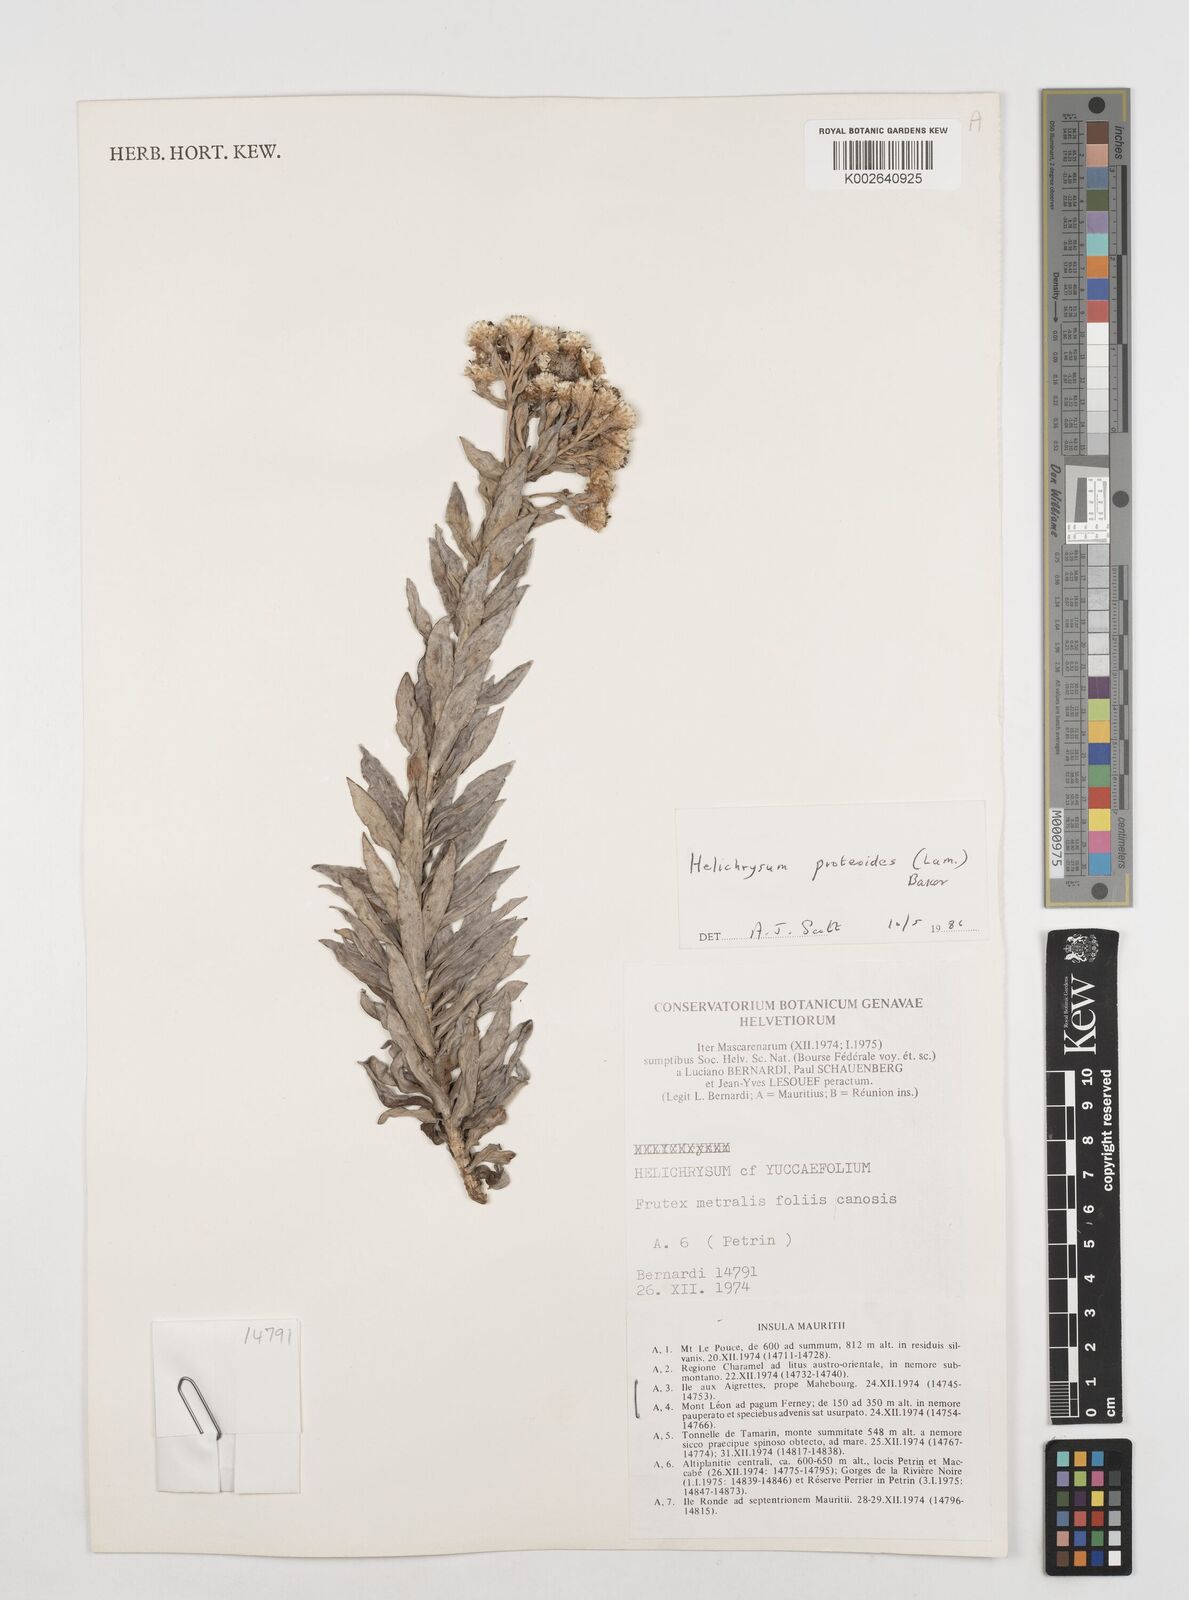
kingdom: Plantae
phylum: Tracheophyta
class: Magnoliopsida
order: Asterales
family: Asteraceae
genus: Helichrysum
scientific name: Helichrysum proteoides
